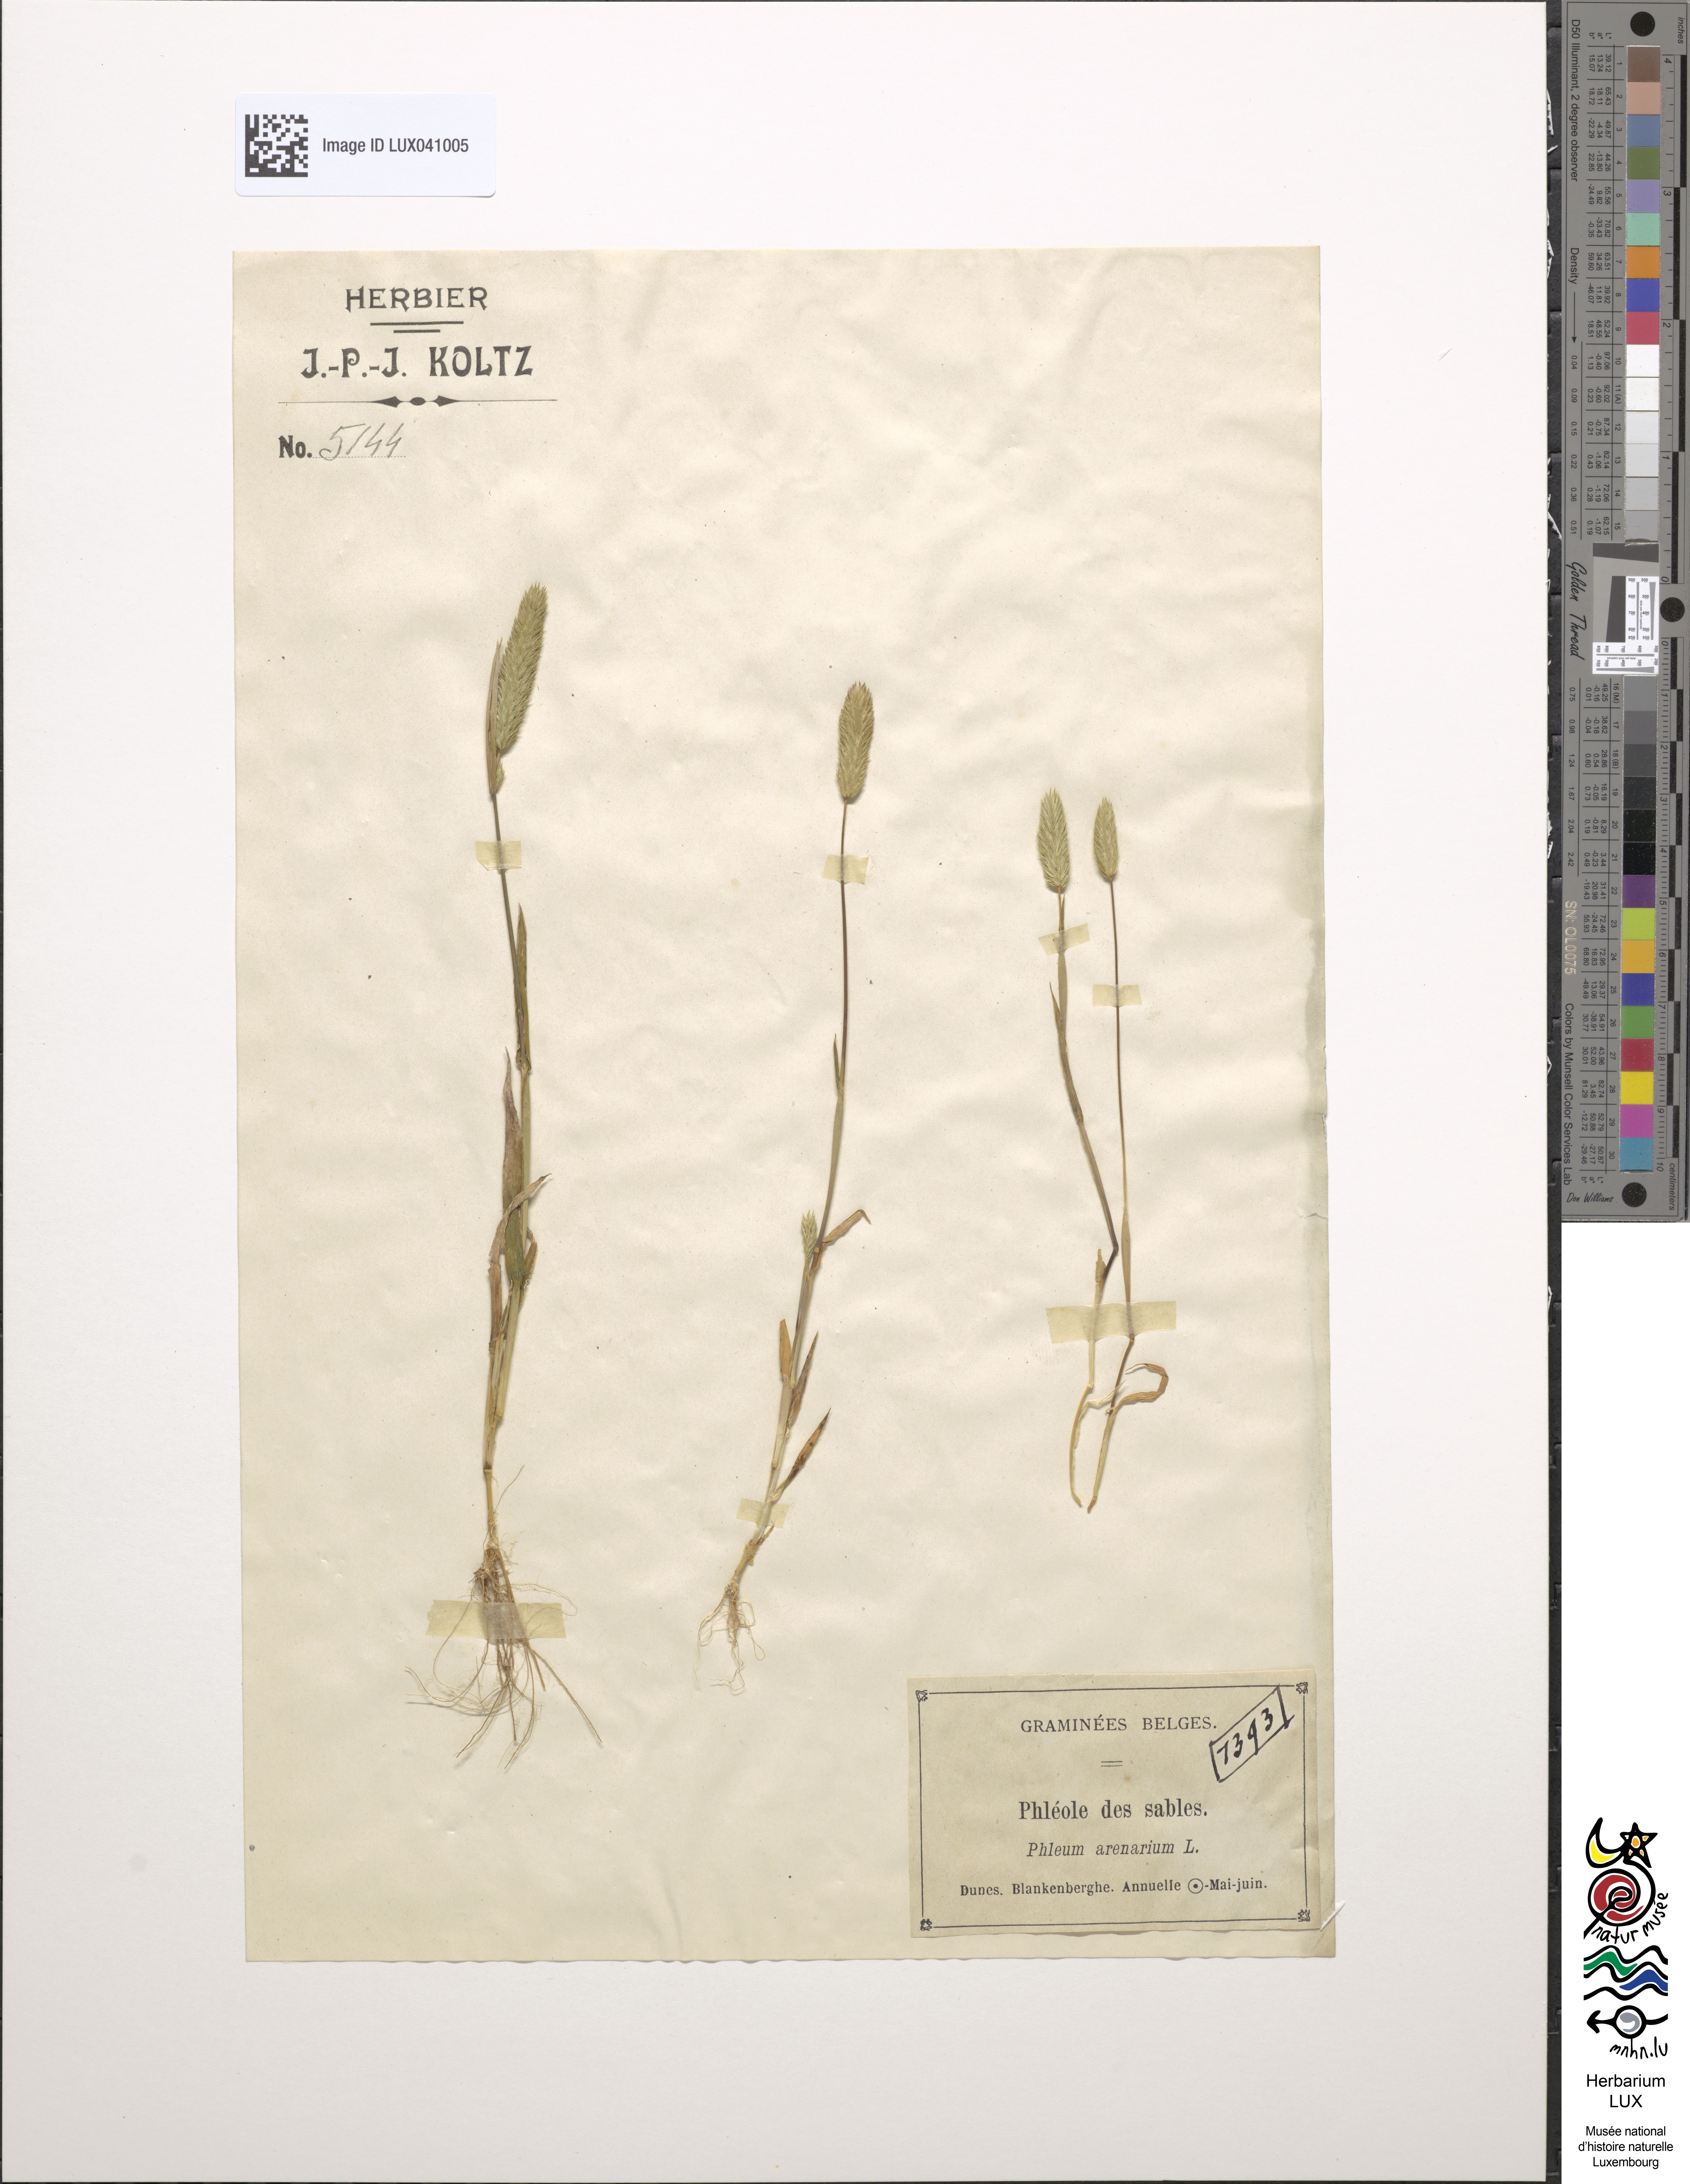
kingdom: Plantae
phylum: Tracheophyta
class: Liliopsida
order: Poales
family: Poaceae
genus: Phleum
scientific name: Phleum arenarium
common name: Sand cat's-tail
